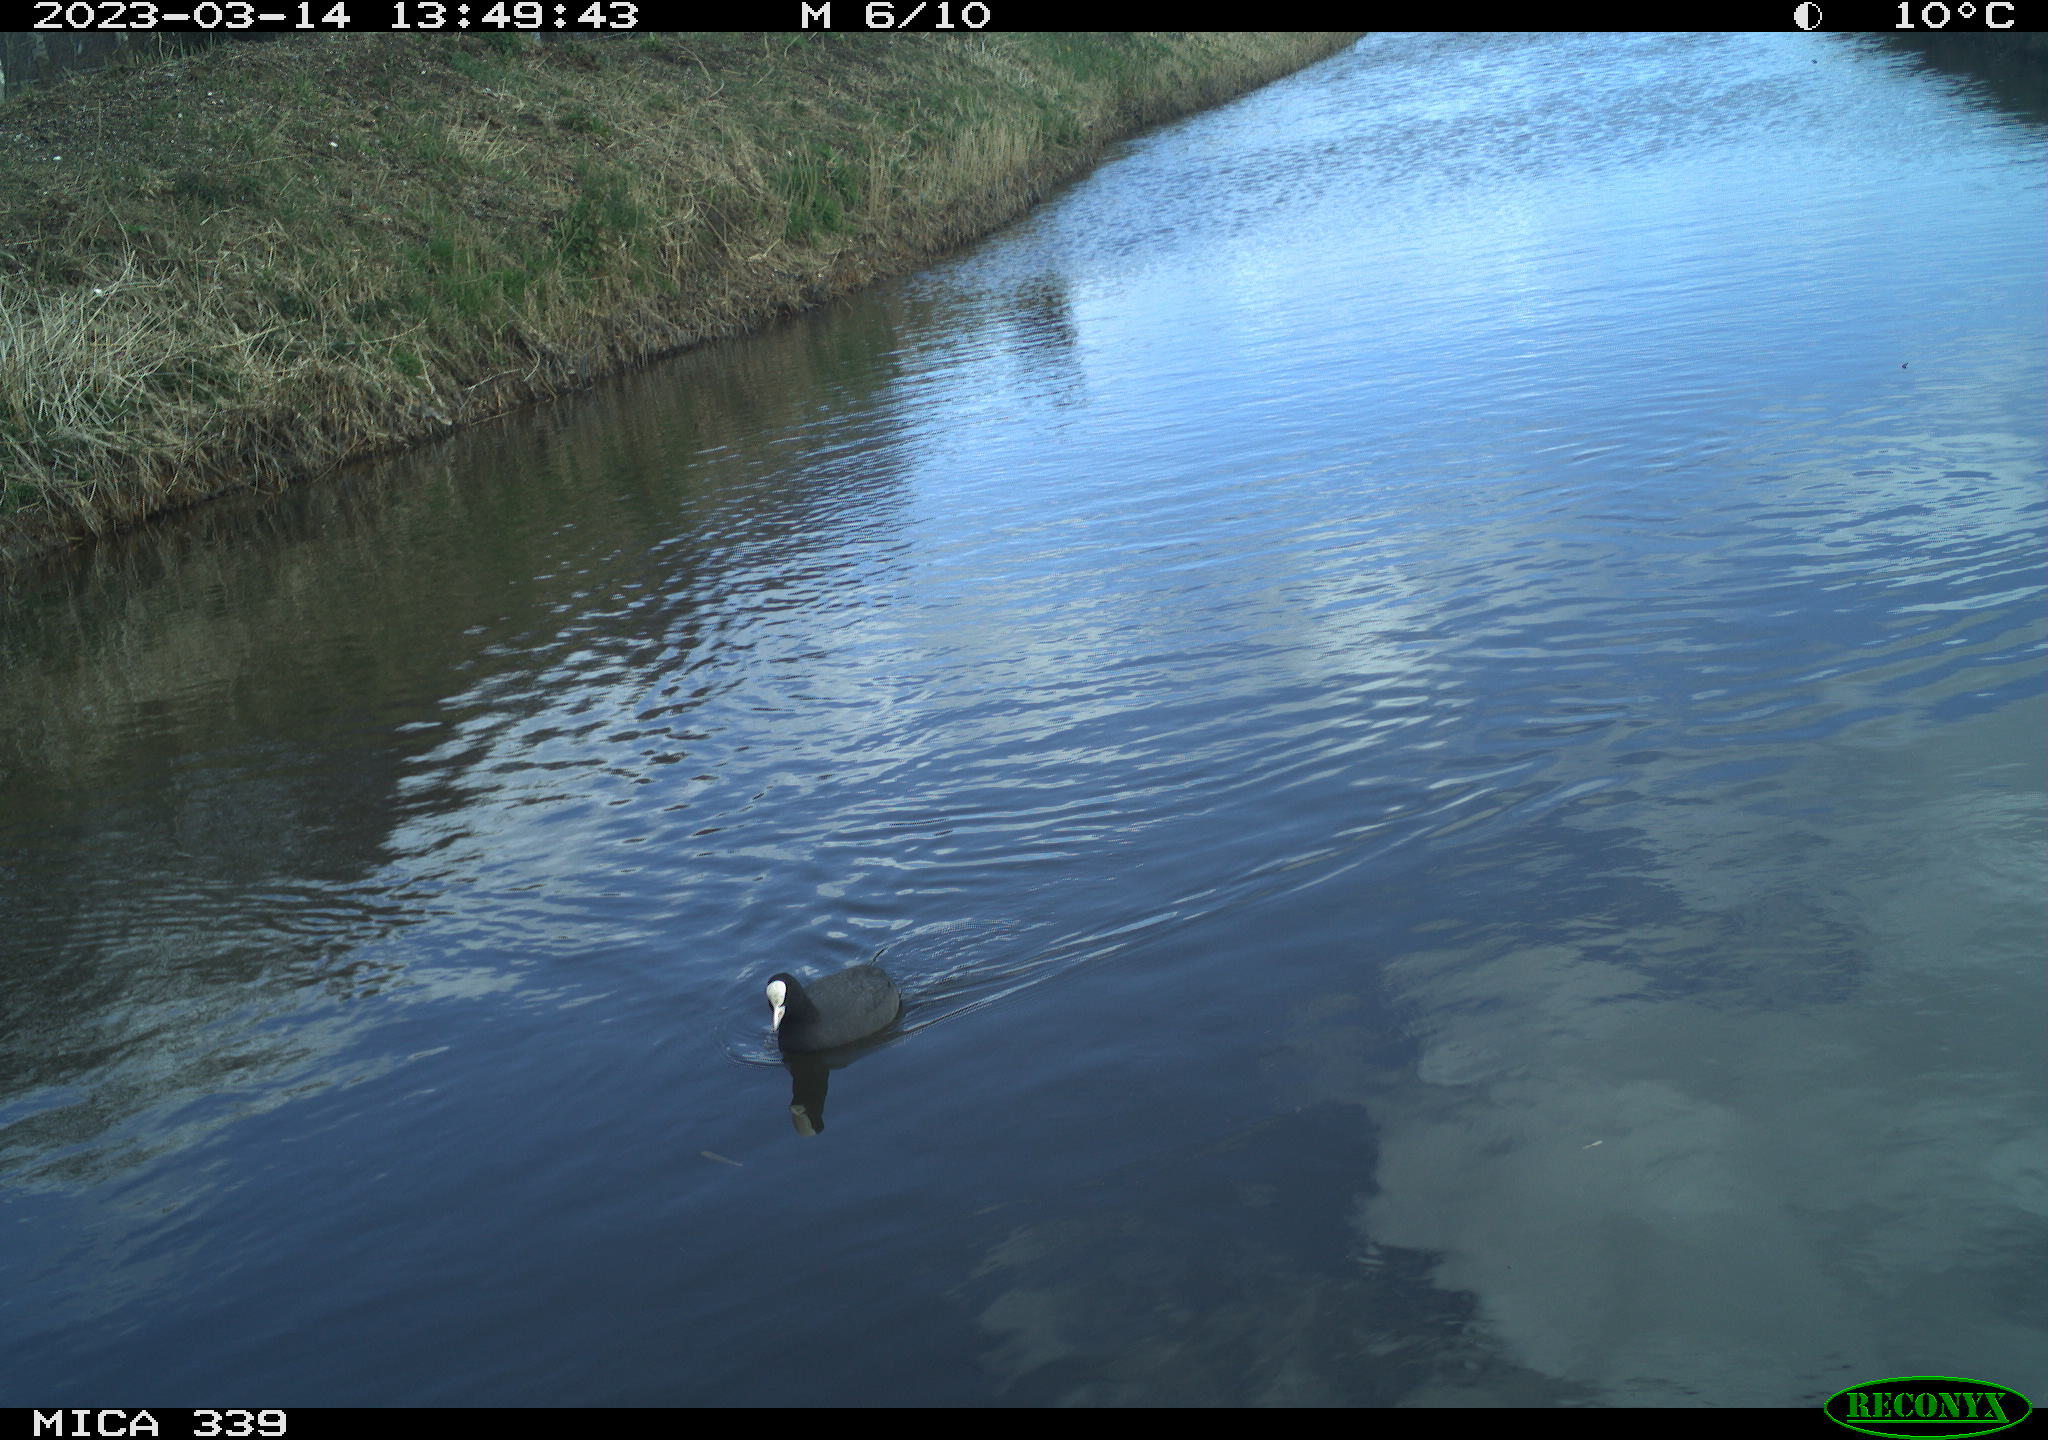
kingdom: Animalia
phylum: Chordata
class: Aves
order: Gruiformes
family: Rallidae
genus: Fulica
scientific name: Fulica atra
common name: Eurasian coot
